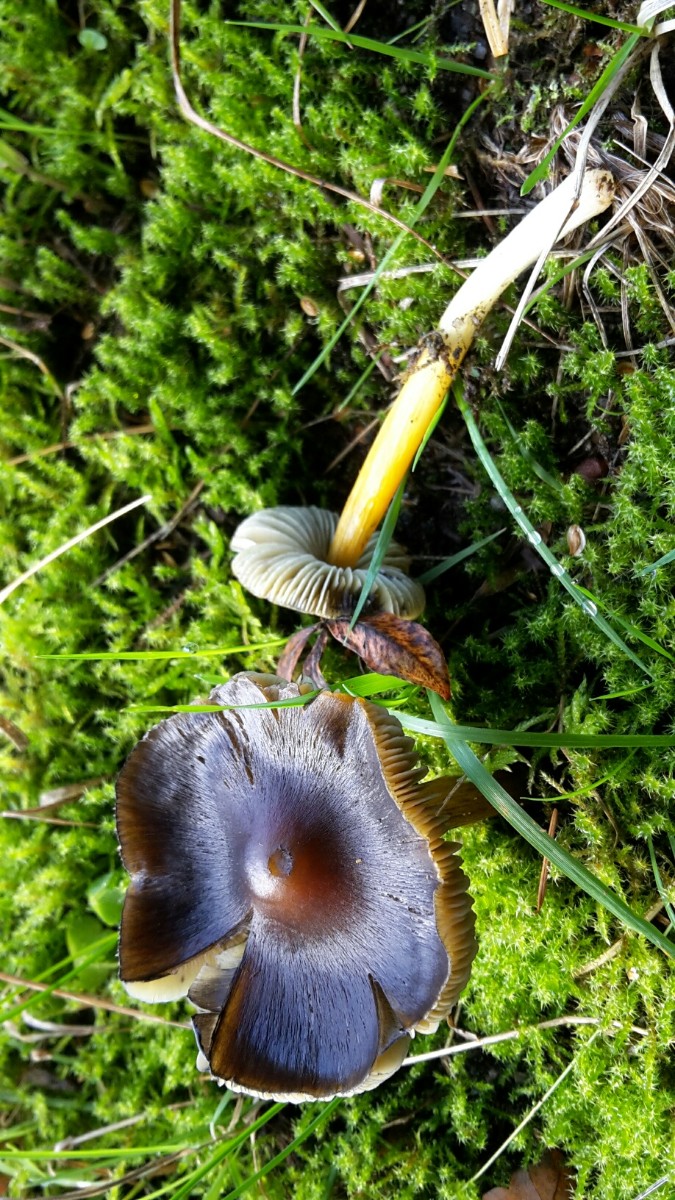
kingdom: Fungi
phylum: Basidiomycota
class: Agaricomycetes
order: Agaricales
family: Hygrophoraceae
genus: Hygrocybe
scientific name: Hygrocybe conica
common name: kegle-vokshat
